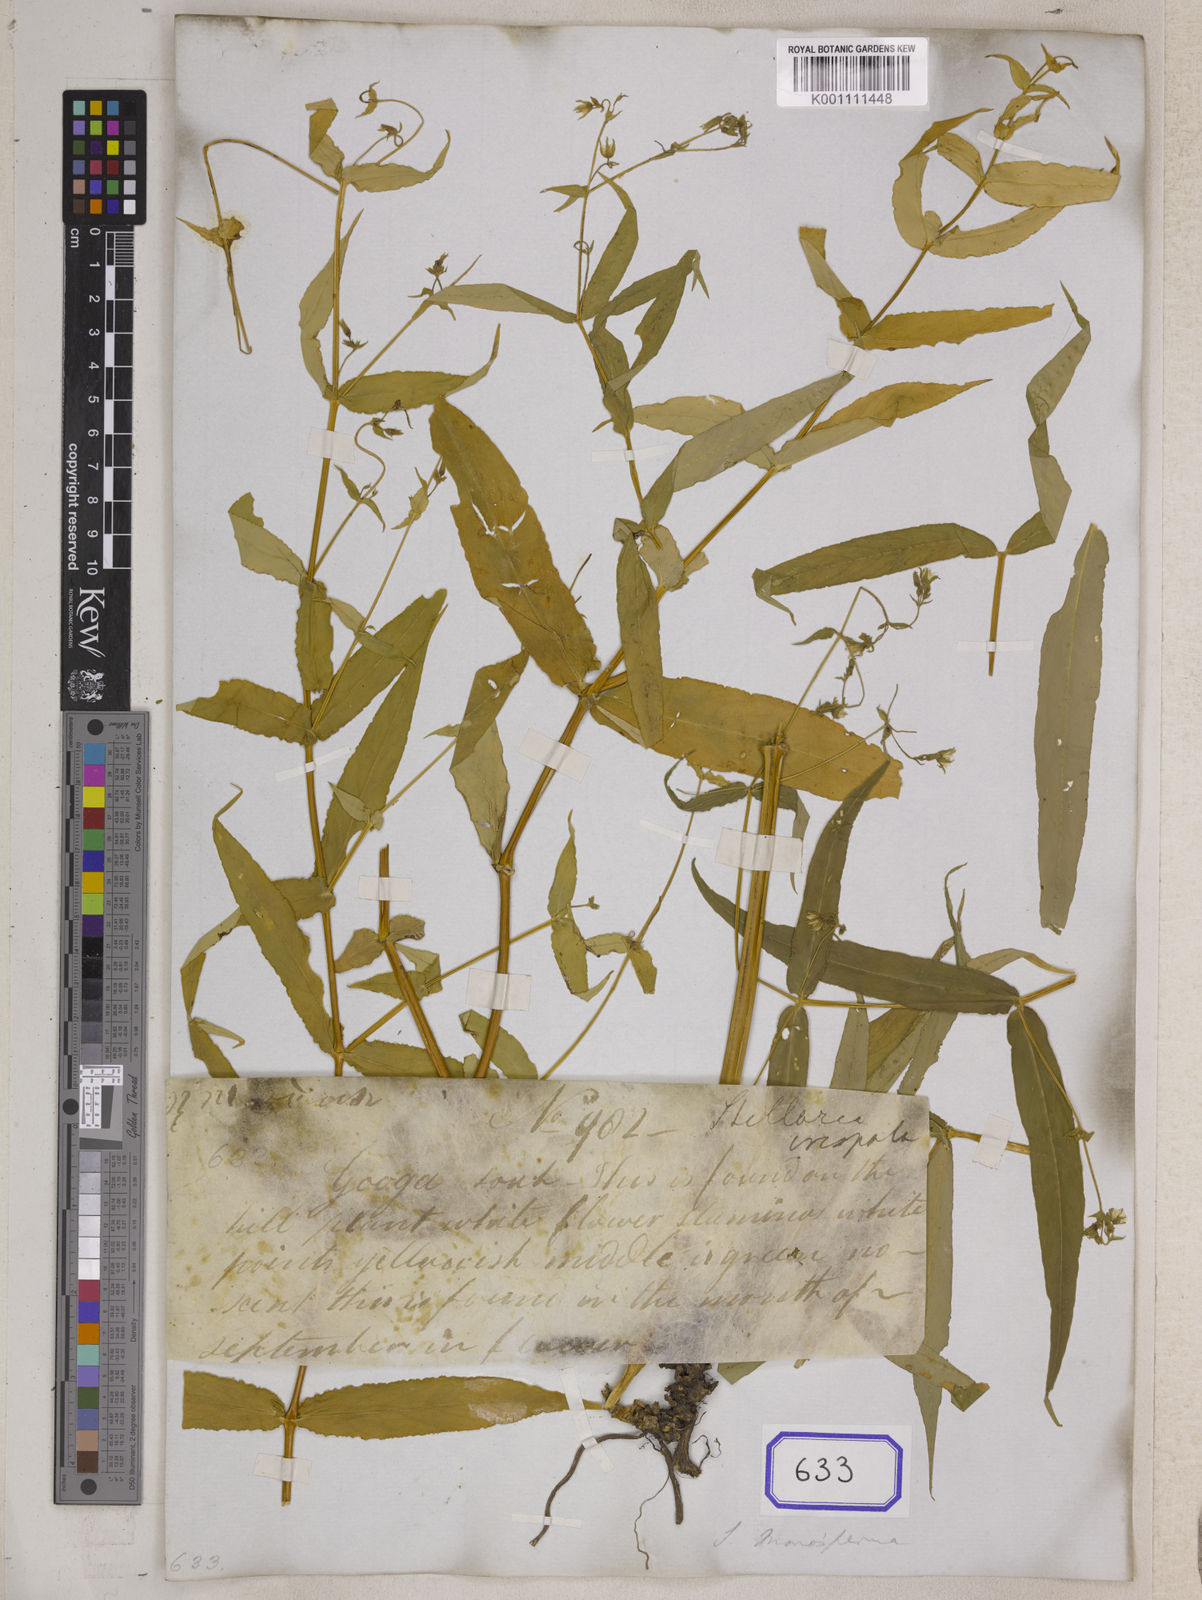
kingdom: Plantae
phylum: Tracheophyta
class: Magnoliopsida
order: Caryophyllales
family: Caryophyllaceae
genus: Stellaria
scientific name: Stellaria
